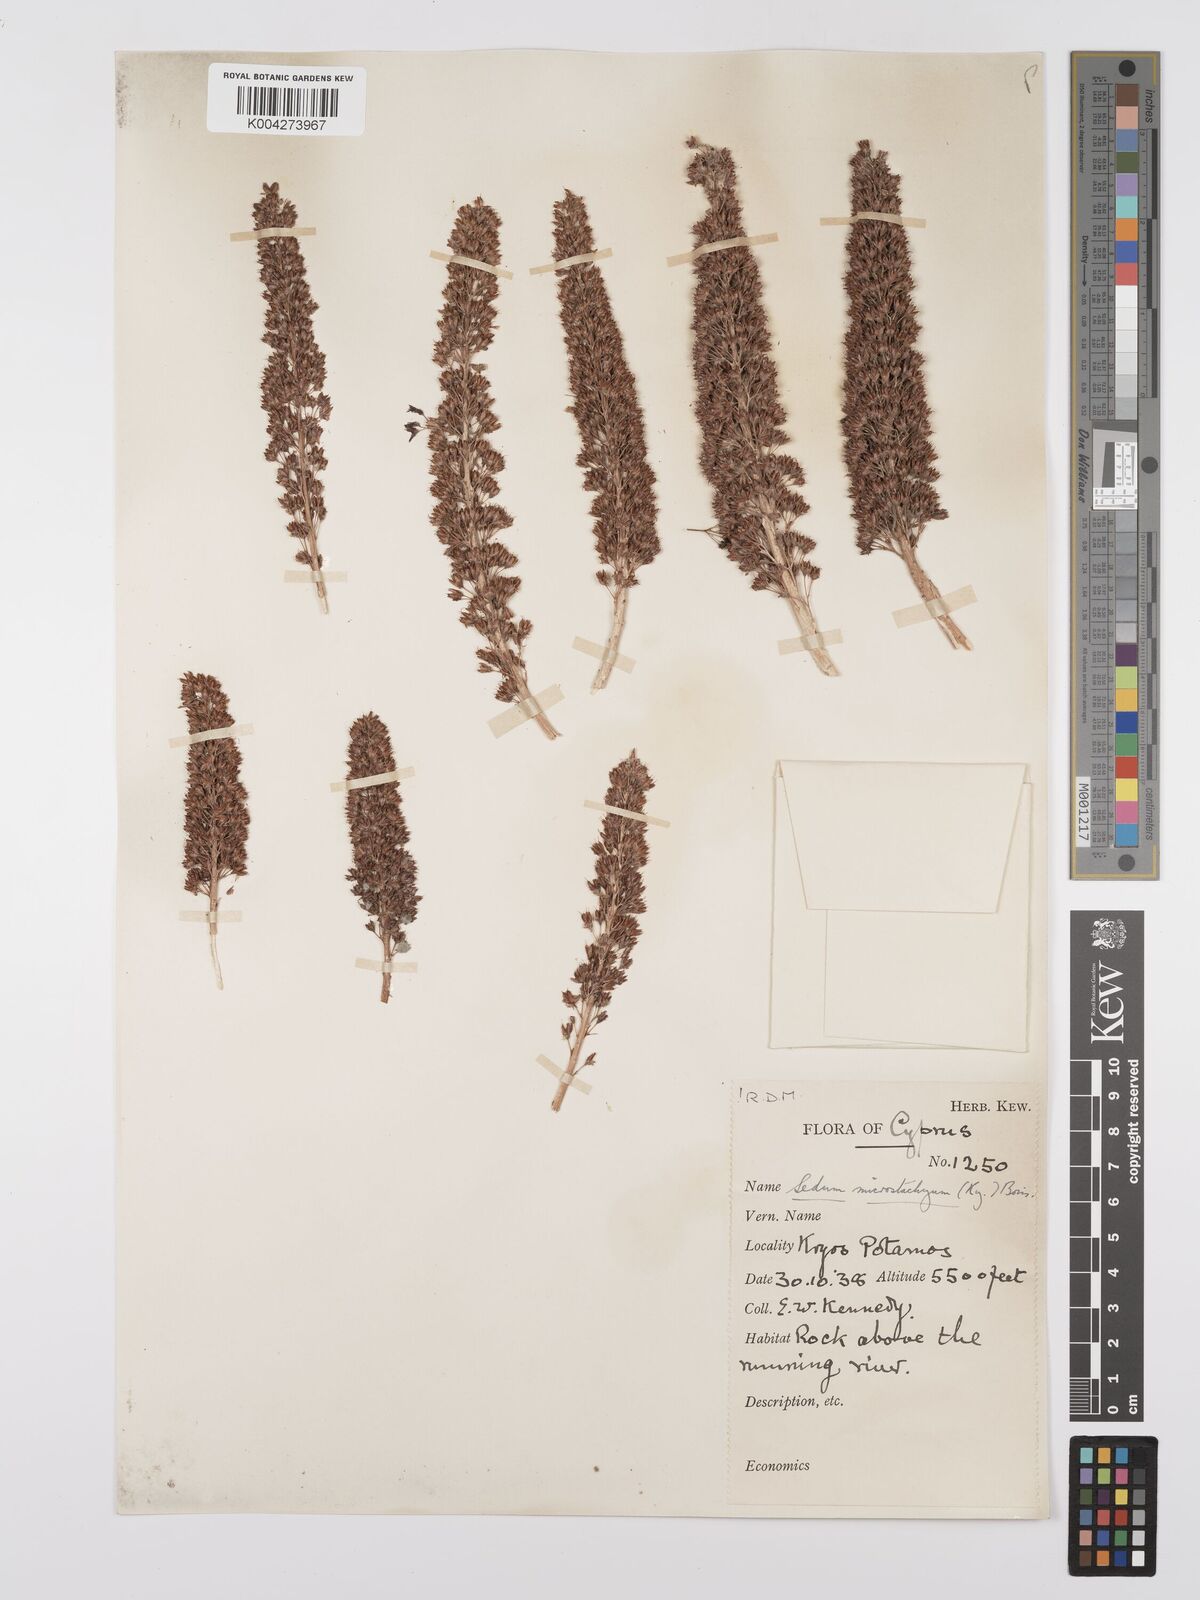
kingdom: Plantae
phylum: Tracheophyta
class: Magnoliopsida
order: Saxifragales
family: Crassulaceae
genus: Sedum
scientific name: Sedum microstachyum
